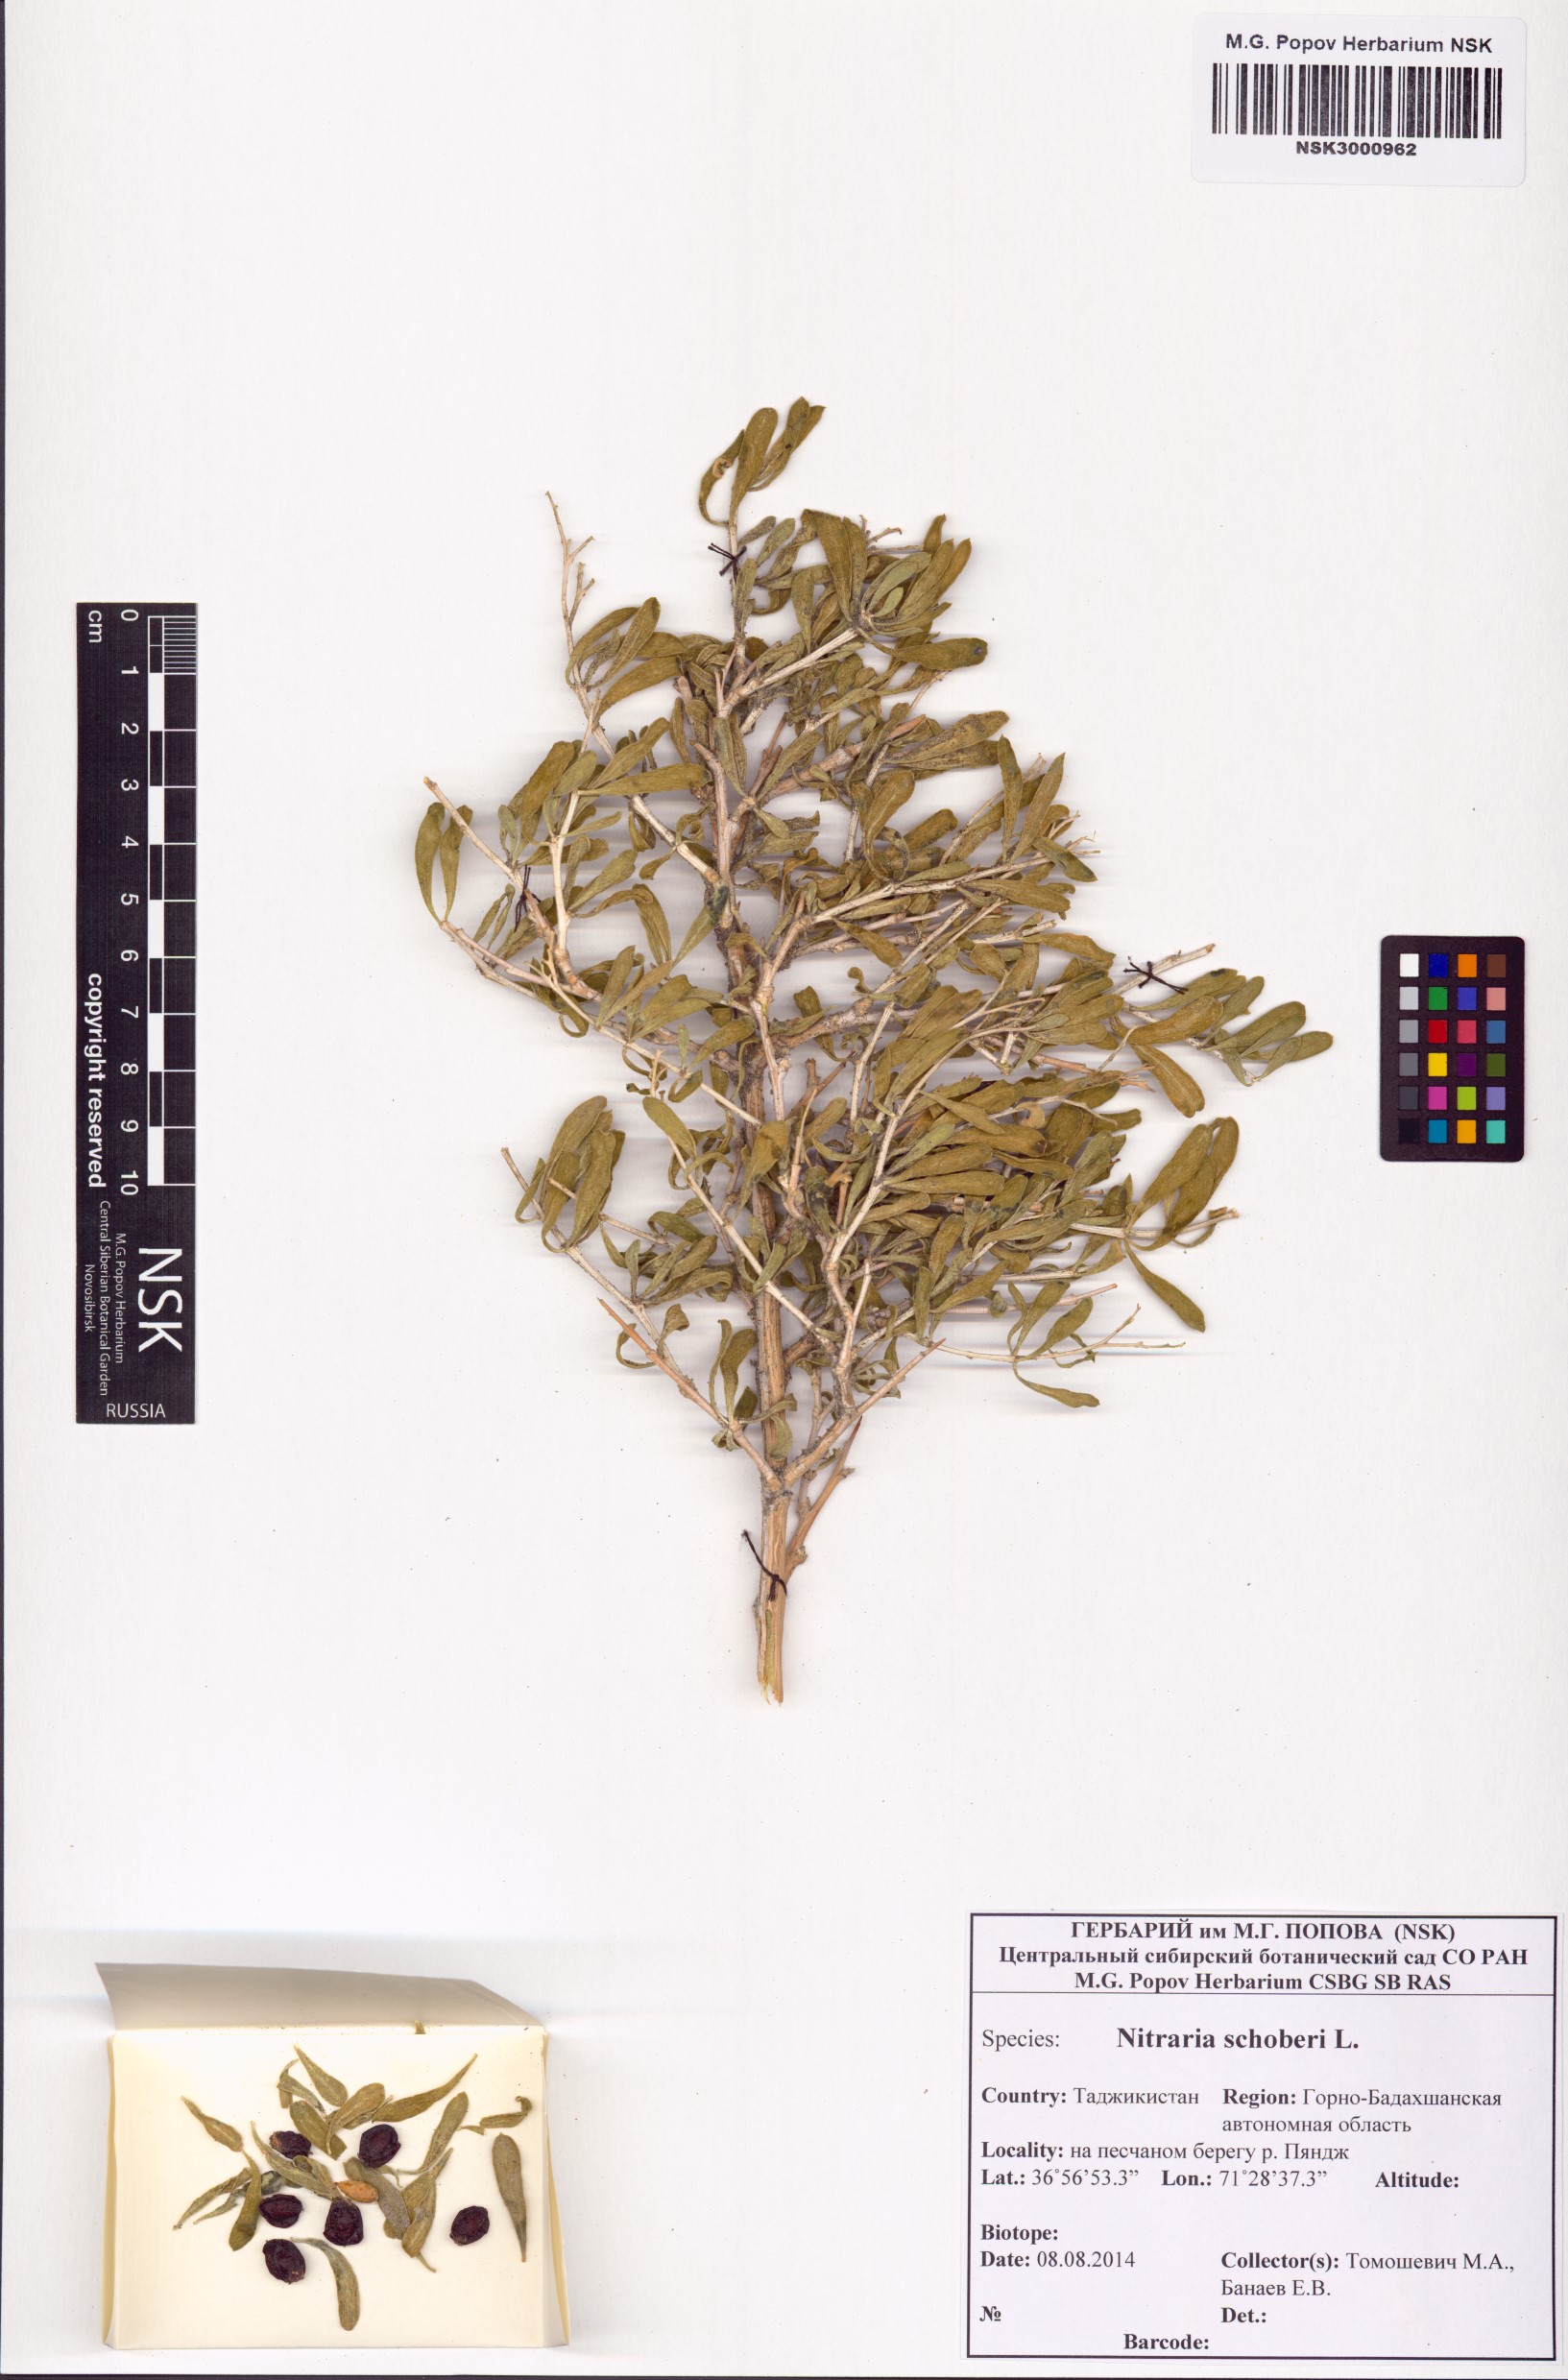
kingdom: Plantae
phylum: Tracheophyta
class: Magnoliopsida
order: Sapindales
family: Nitrariaceae
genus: Nitraria
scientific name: Nitraria schoberi
